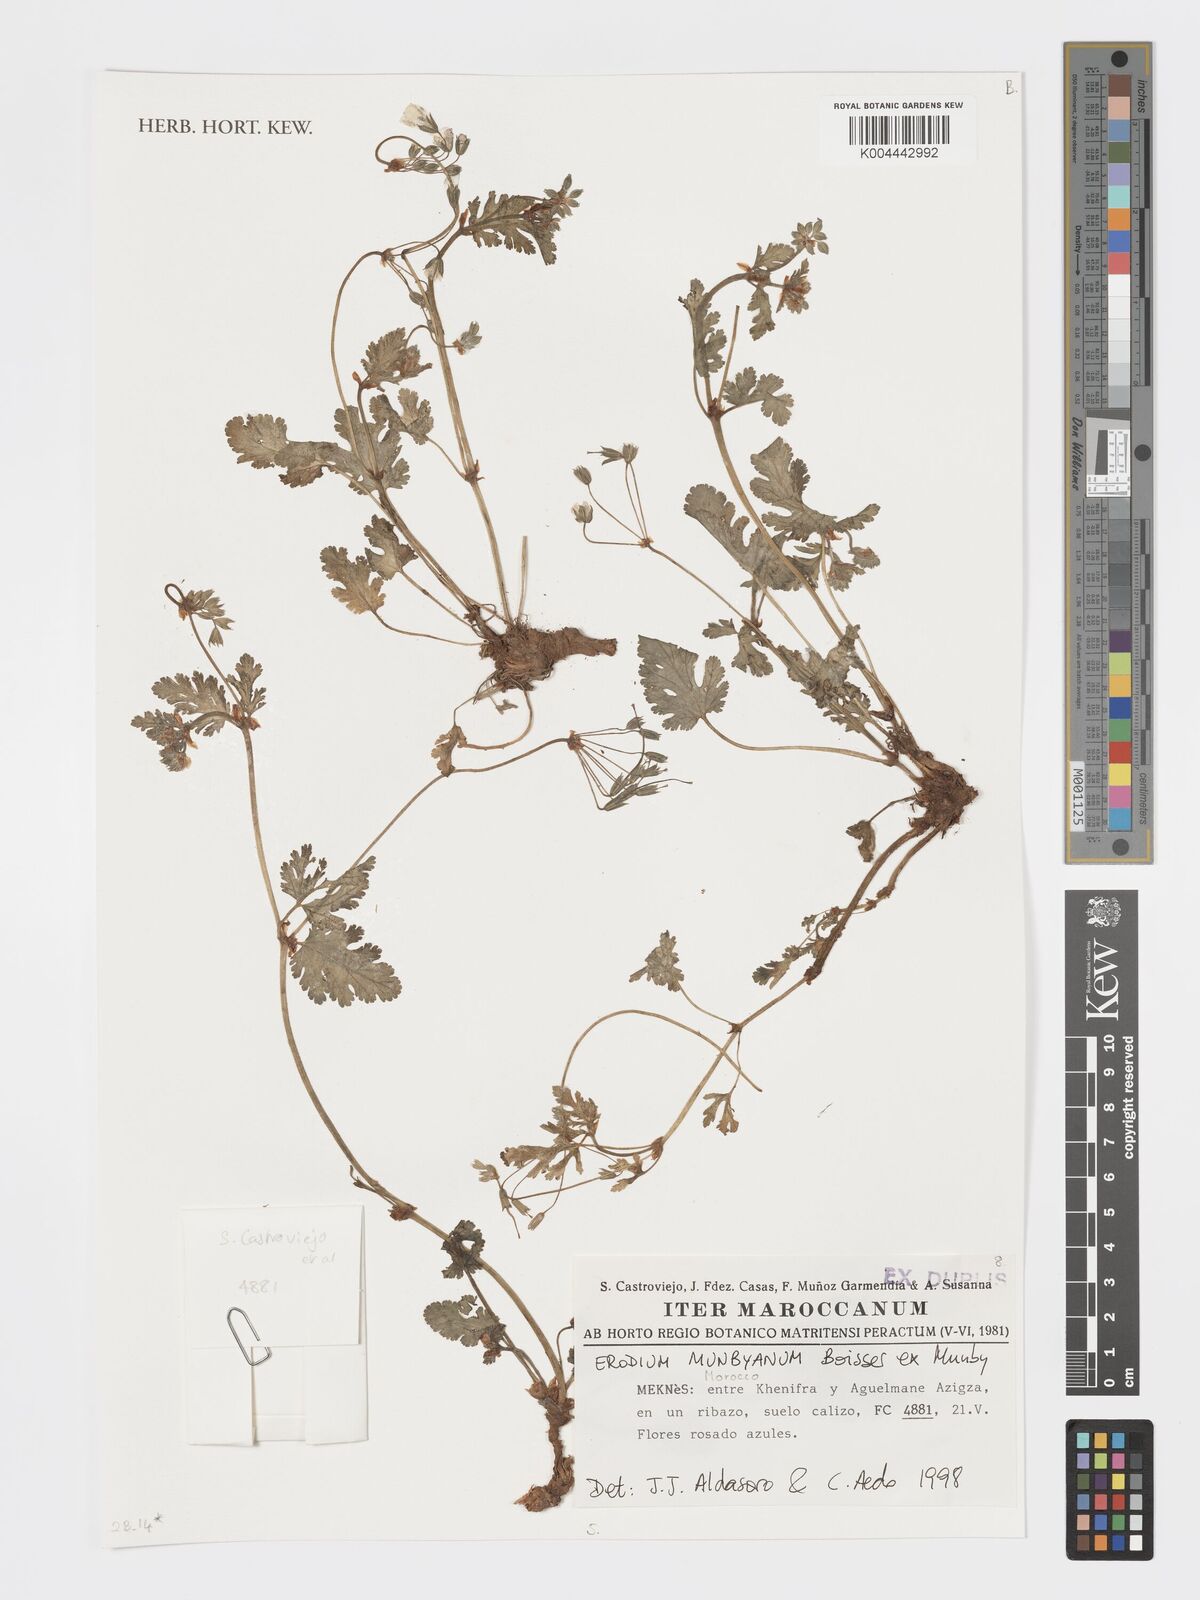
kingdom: Plantae
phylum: Tracheophyta
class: Magnoliopsida
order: Geraniales
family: Geraniaceae
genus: Erodium
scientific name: Erodium
